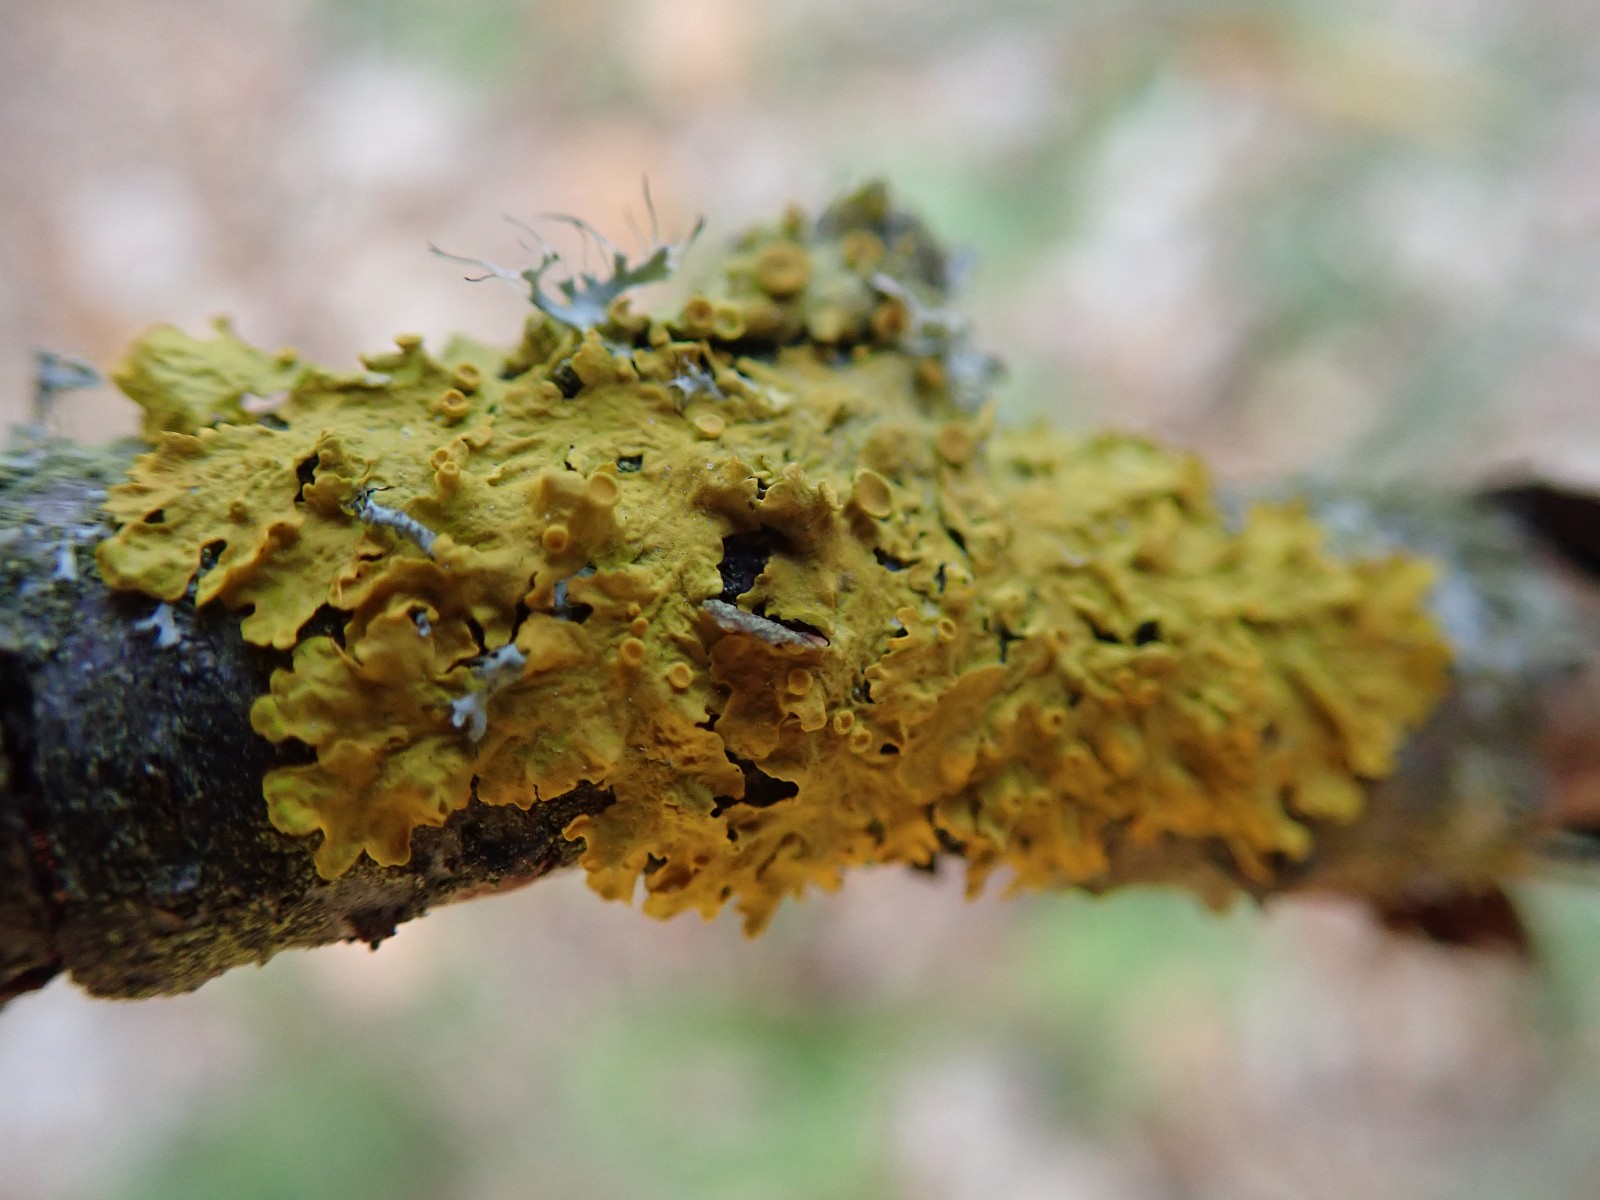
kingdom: Fungi
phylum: Ascomycota
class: Lecanoromycetes
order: Teloschistales
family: Teloschistaceae
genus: Xanthoria
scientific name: Xanthoria parietina
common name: almindelig væggelav
